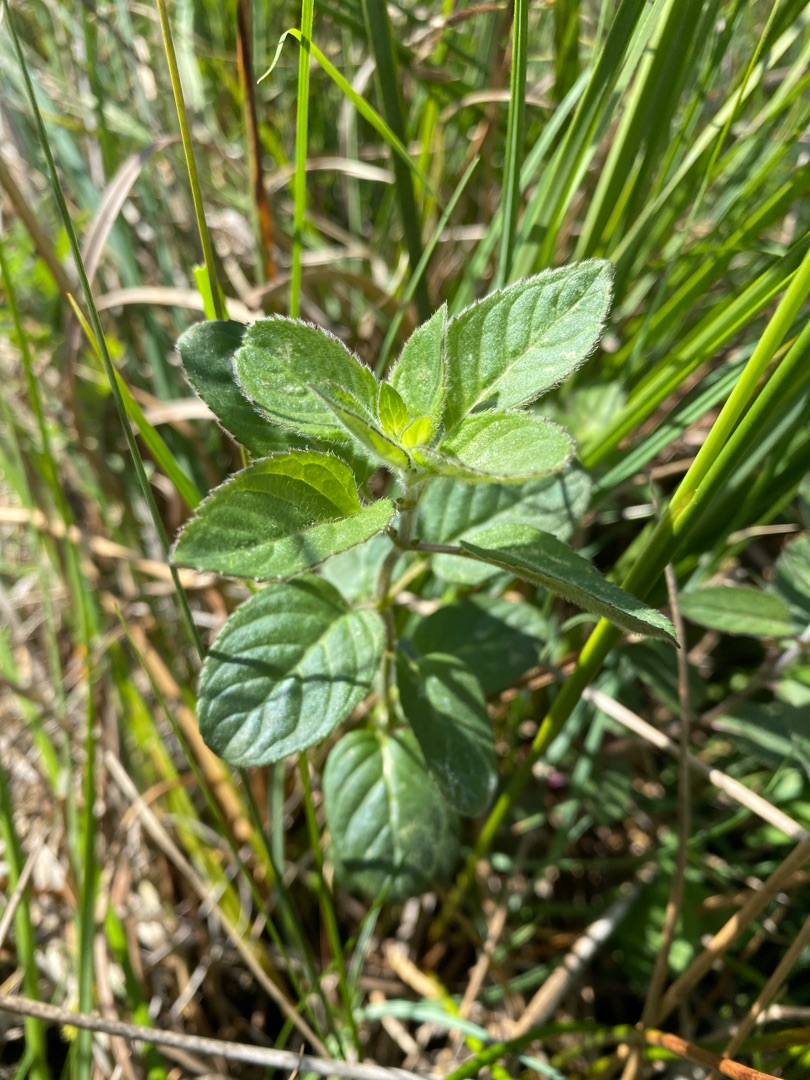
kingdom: Plantae
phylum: Tracheophyta
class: Magnoliopsida
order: Lamiales
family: Lamiaceae
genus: Mentha
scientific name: Mentha aquatica
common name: Vand-mynte
